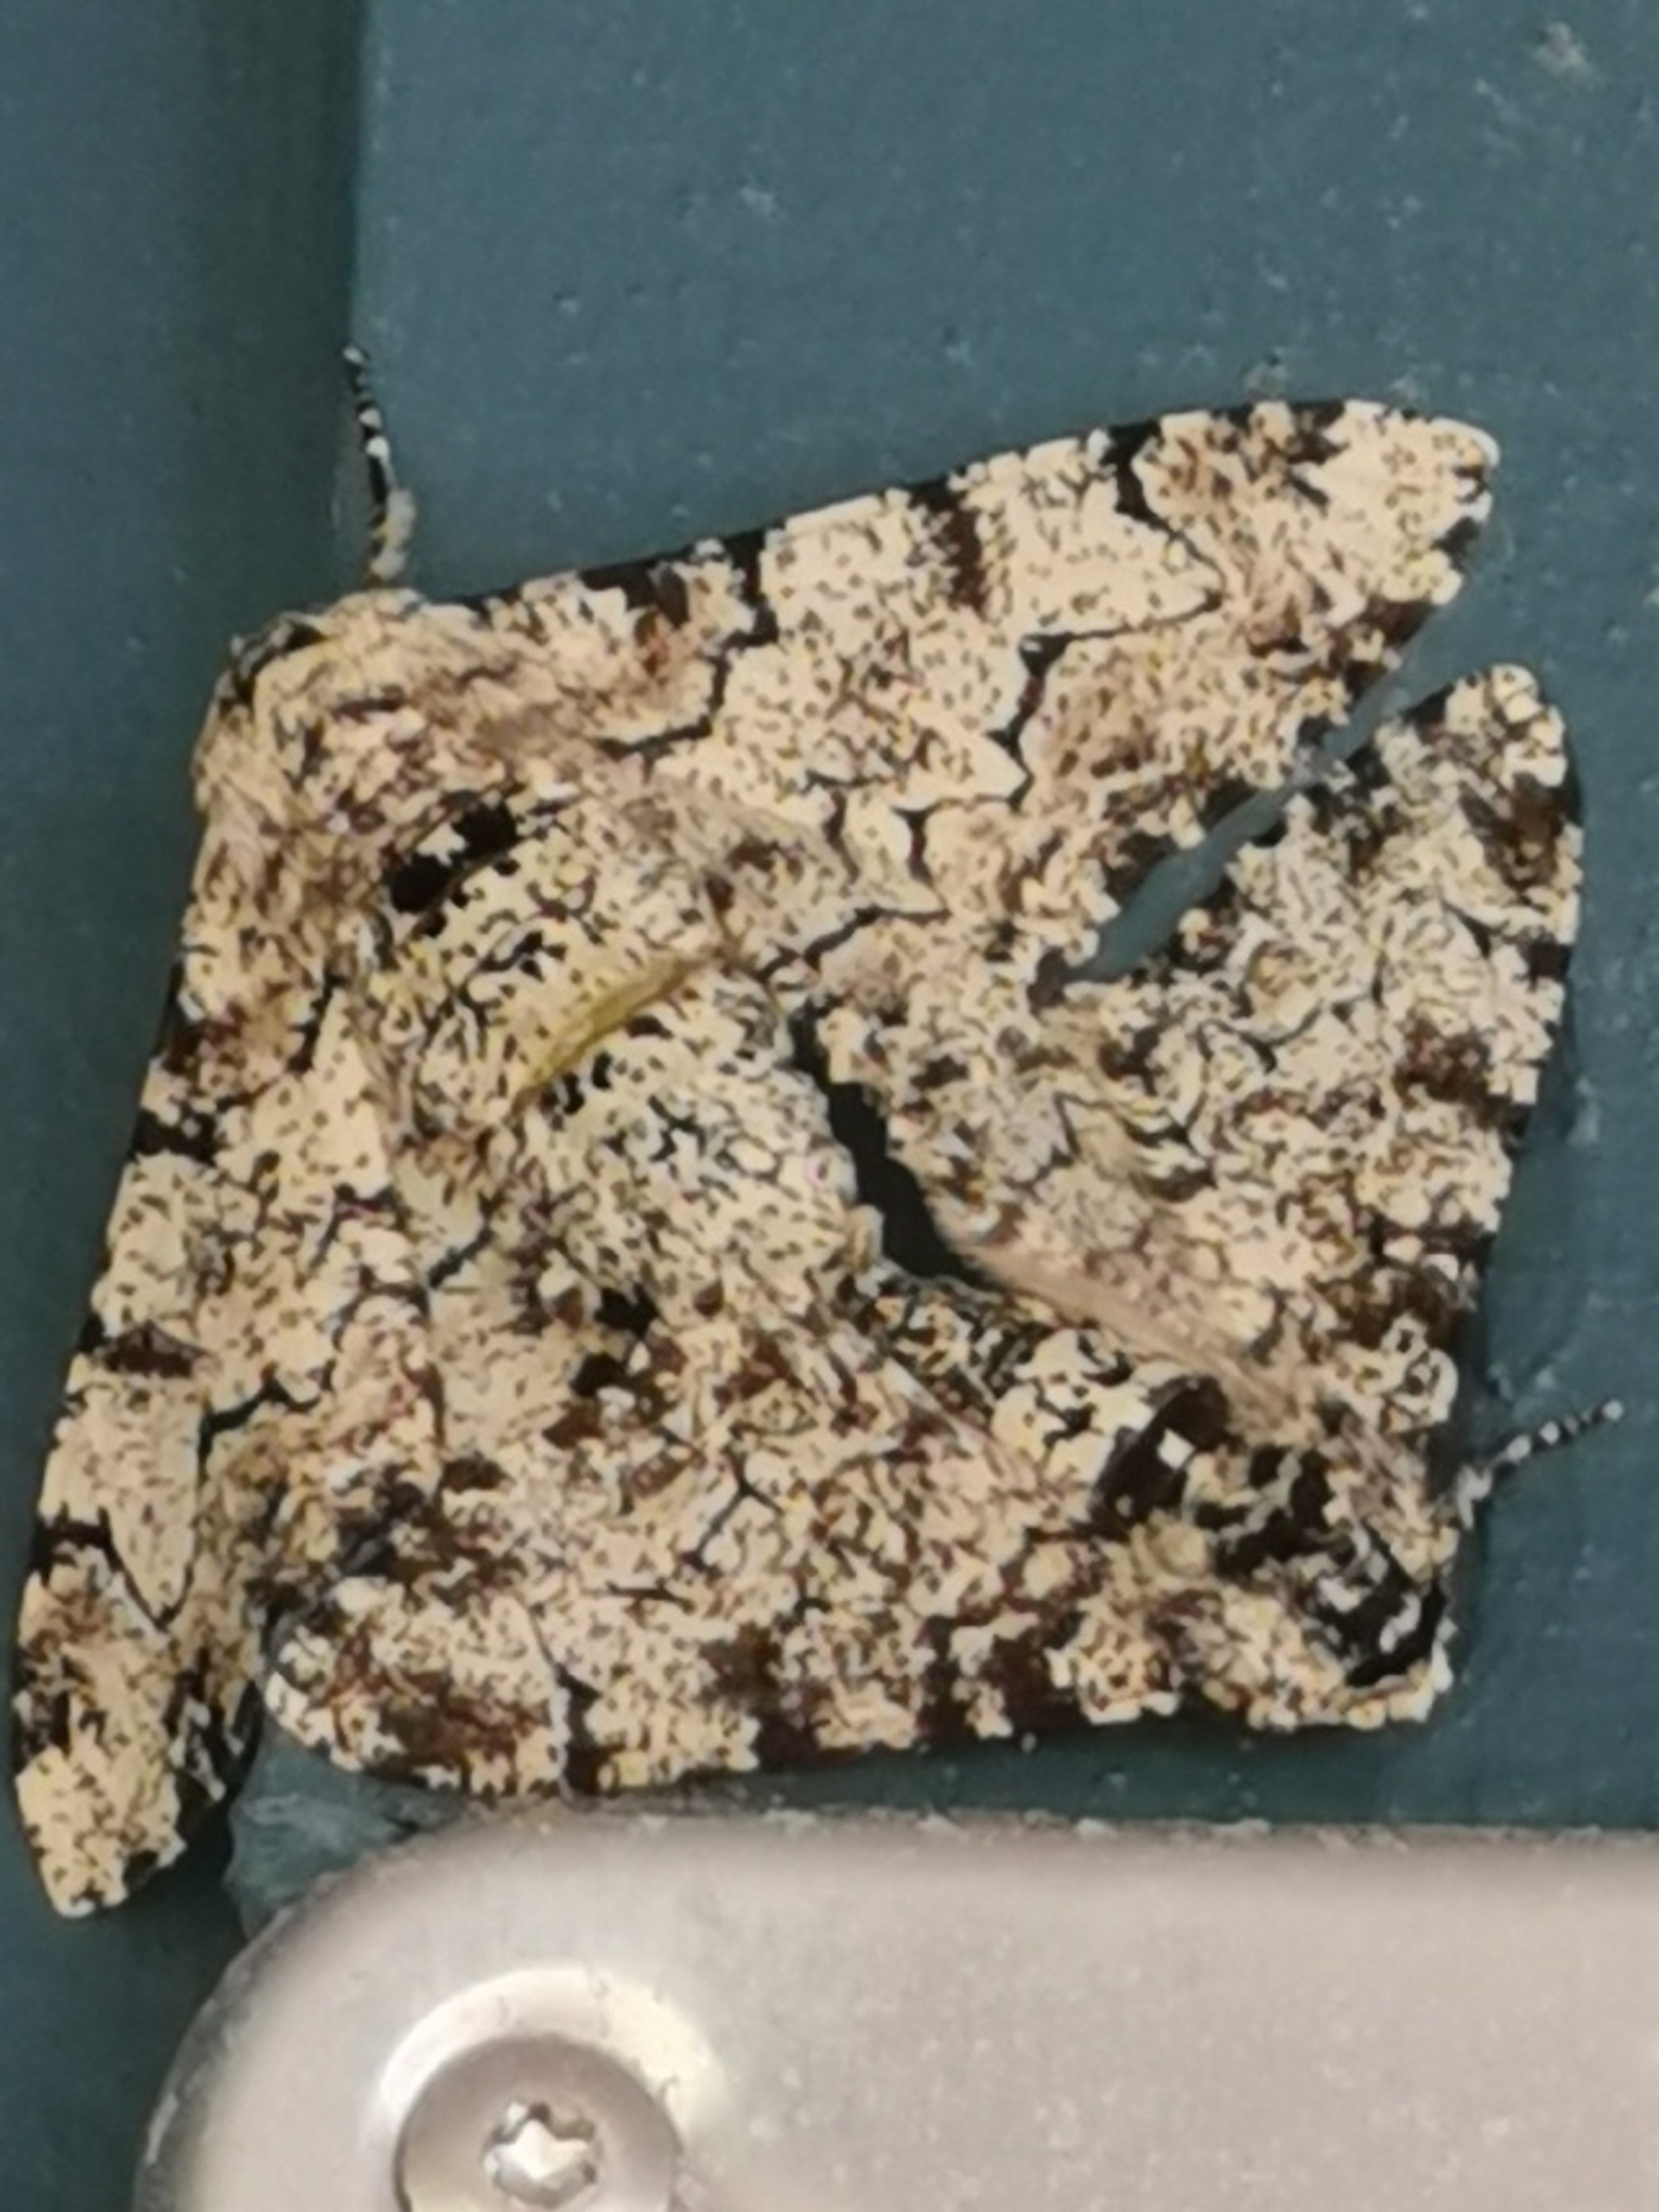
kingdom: Animalia
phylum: Arthropoda
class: Insecta
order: Lepidoptera
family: Geometridae
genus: Biston
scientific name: Biston betularia
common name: Birkemåler
